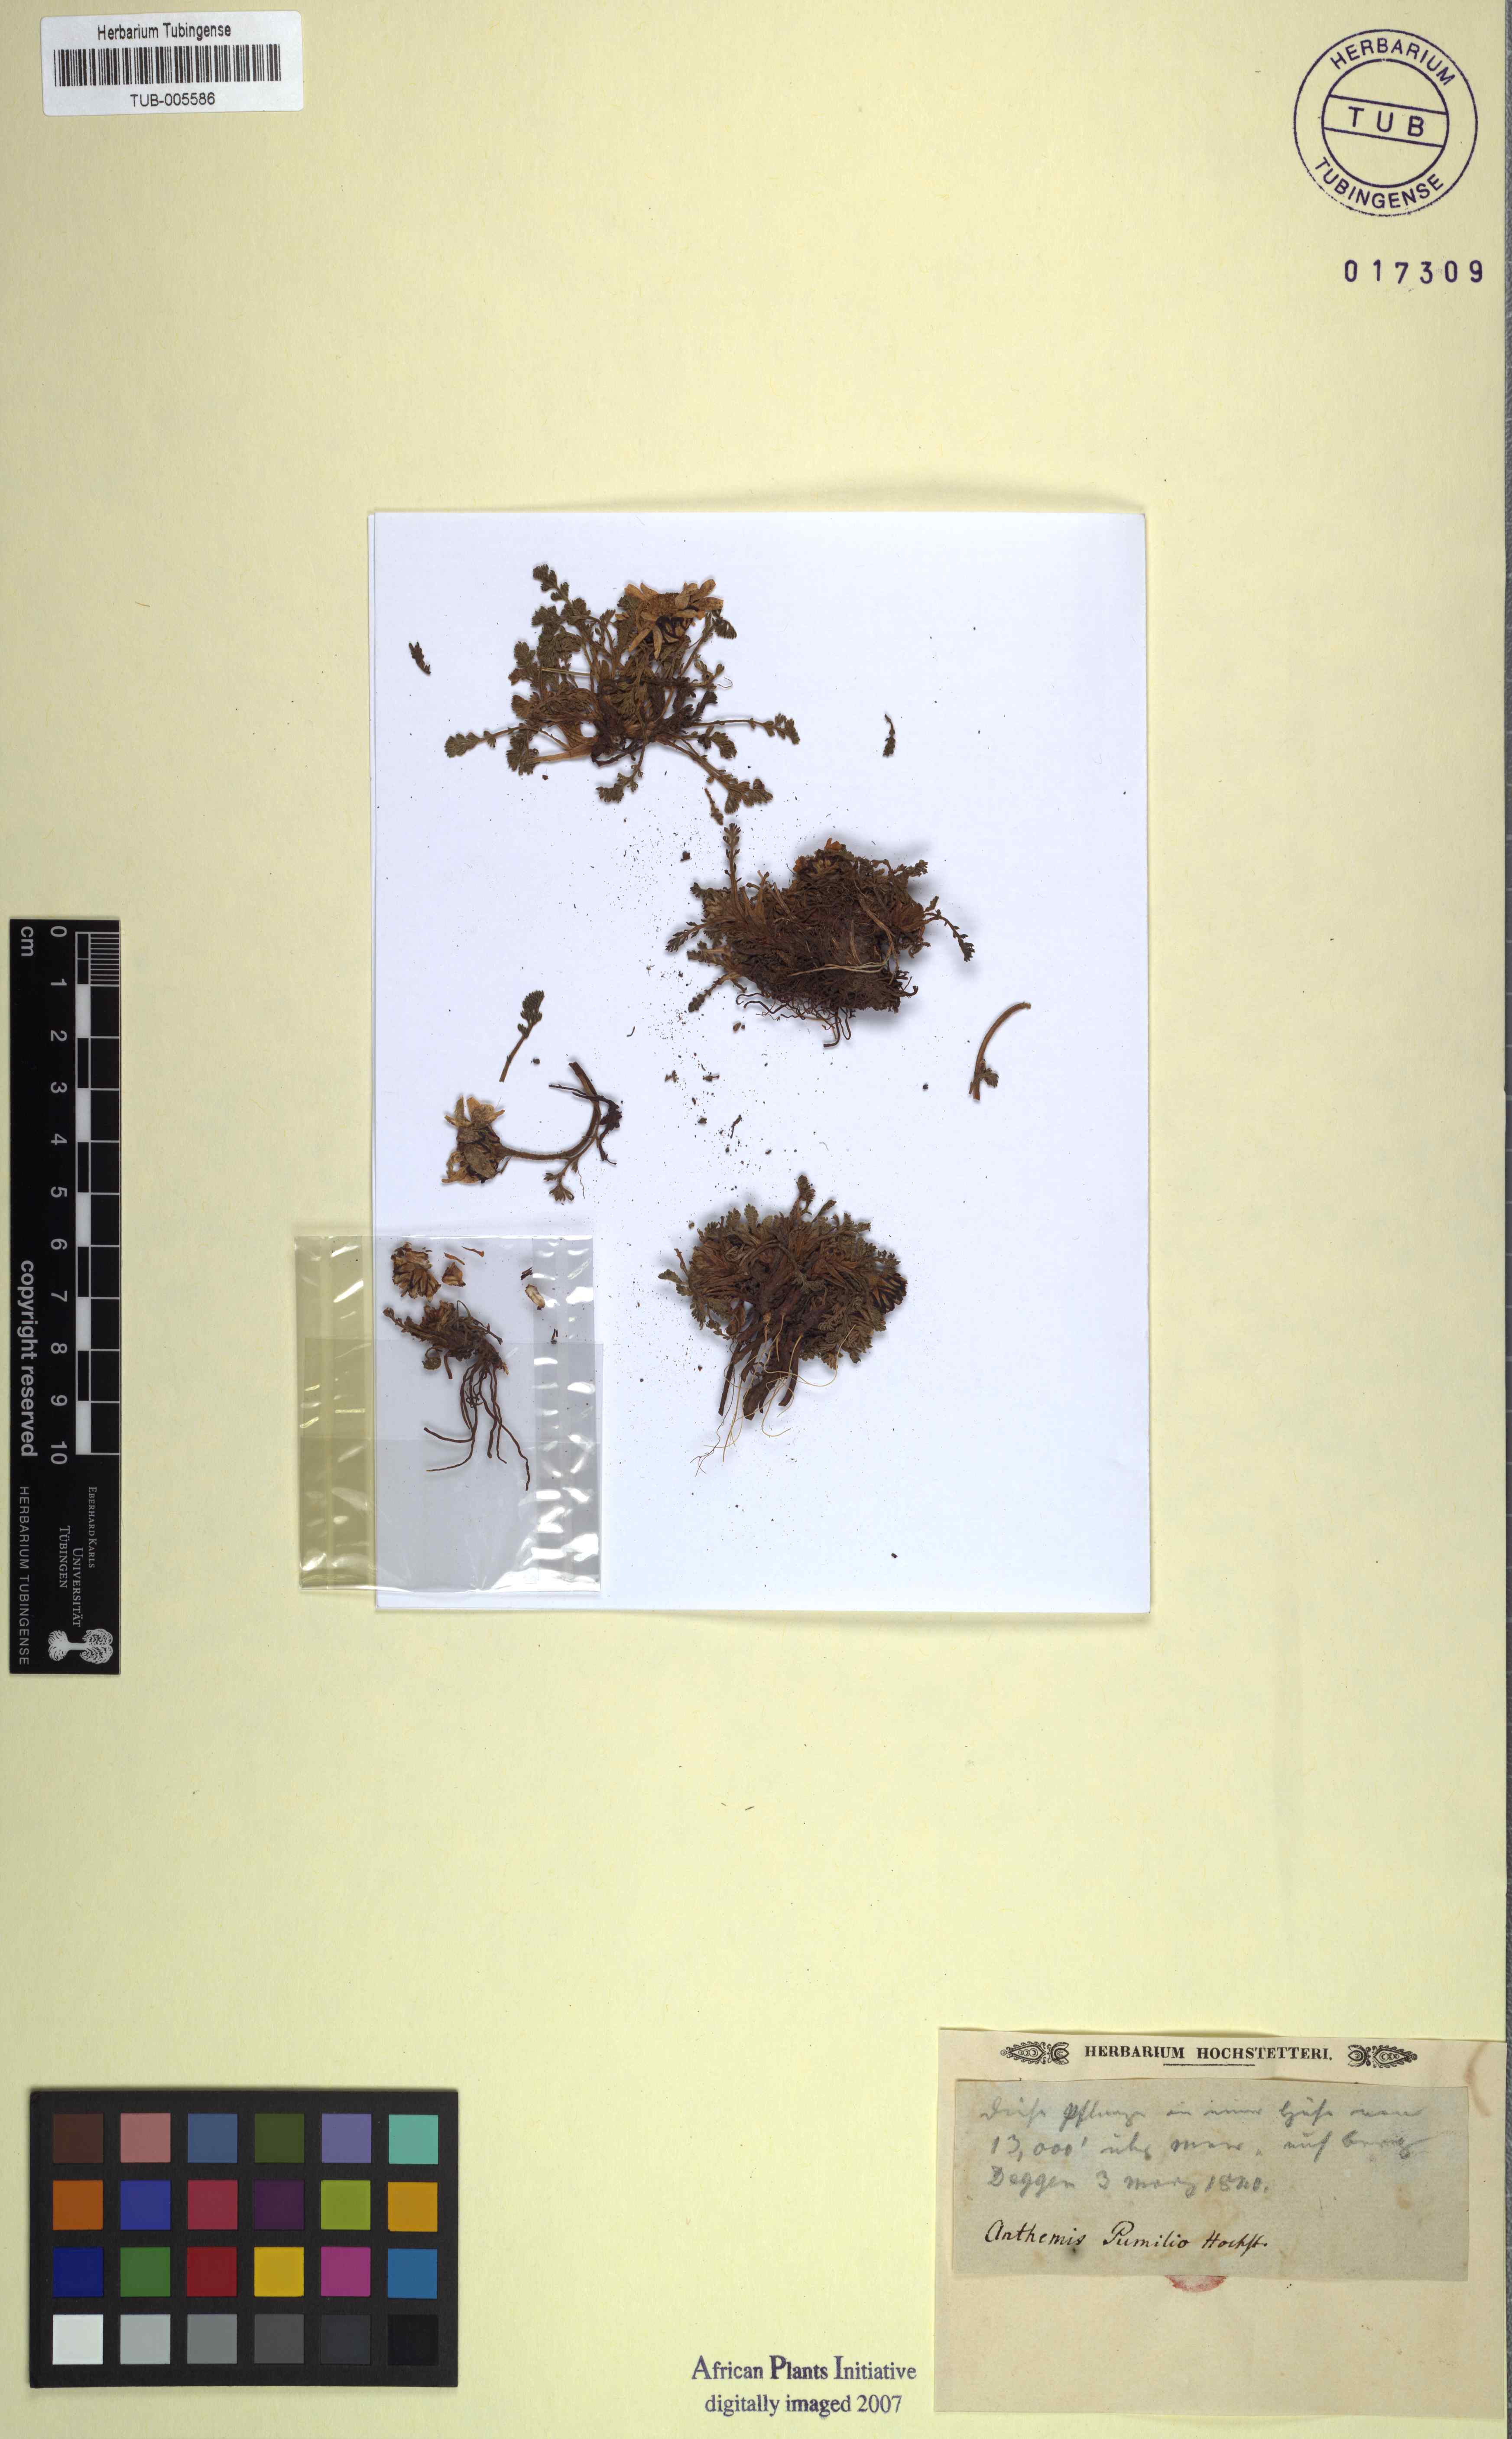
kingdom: Plantae
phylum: Tracheophyta
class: Magnoliopsida
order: Asterales
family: Asteraceae
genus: Anthemis
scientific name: Anthemis
